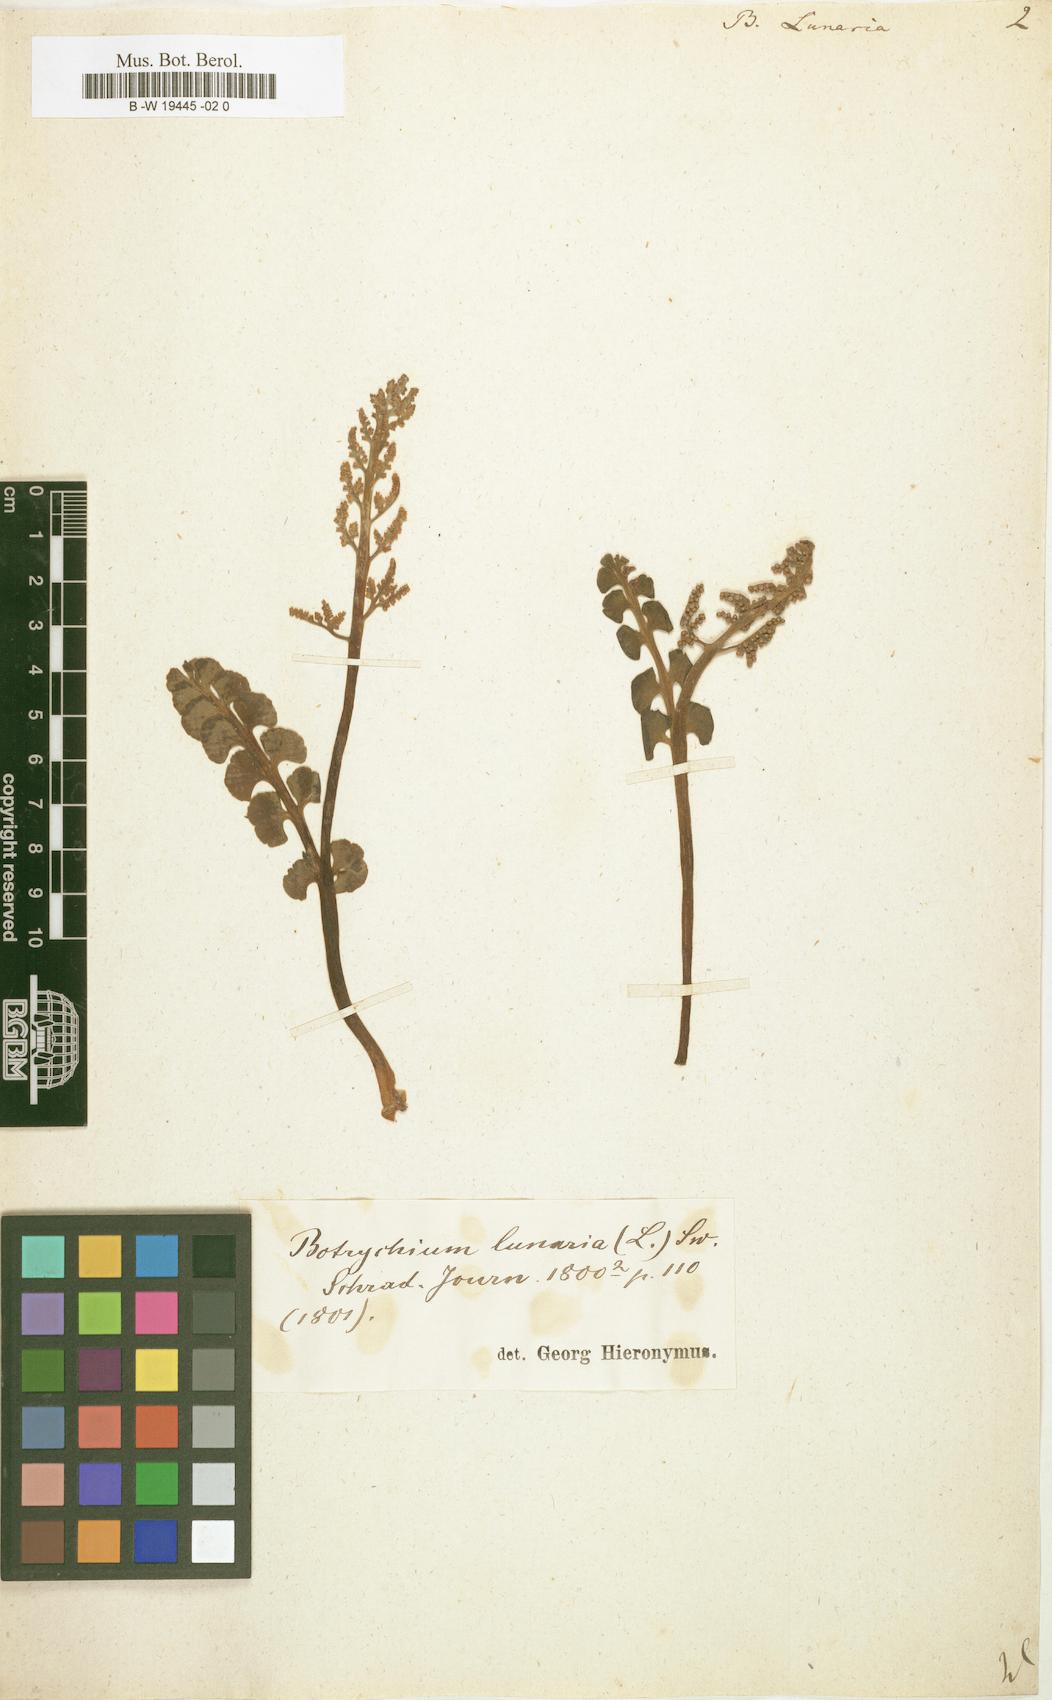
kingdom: Plantae
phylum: Tracheophyta
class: Polypodiopsida
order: Ophioglossales
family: Ophioglossaceae
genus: Botrychium
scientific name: Botrychium lunaria
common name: Moonwort
